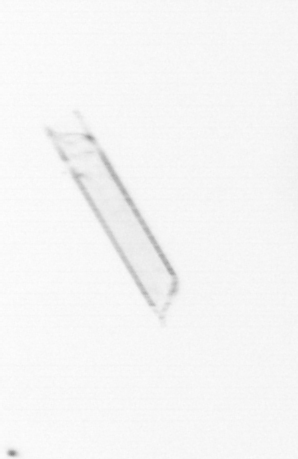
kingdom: Chromista
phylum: Ochrophyta
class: Bacillariophyceae
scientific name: Bacillariophyceae
